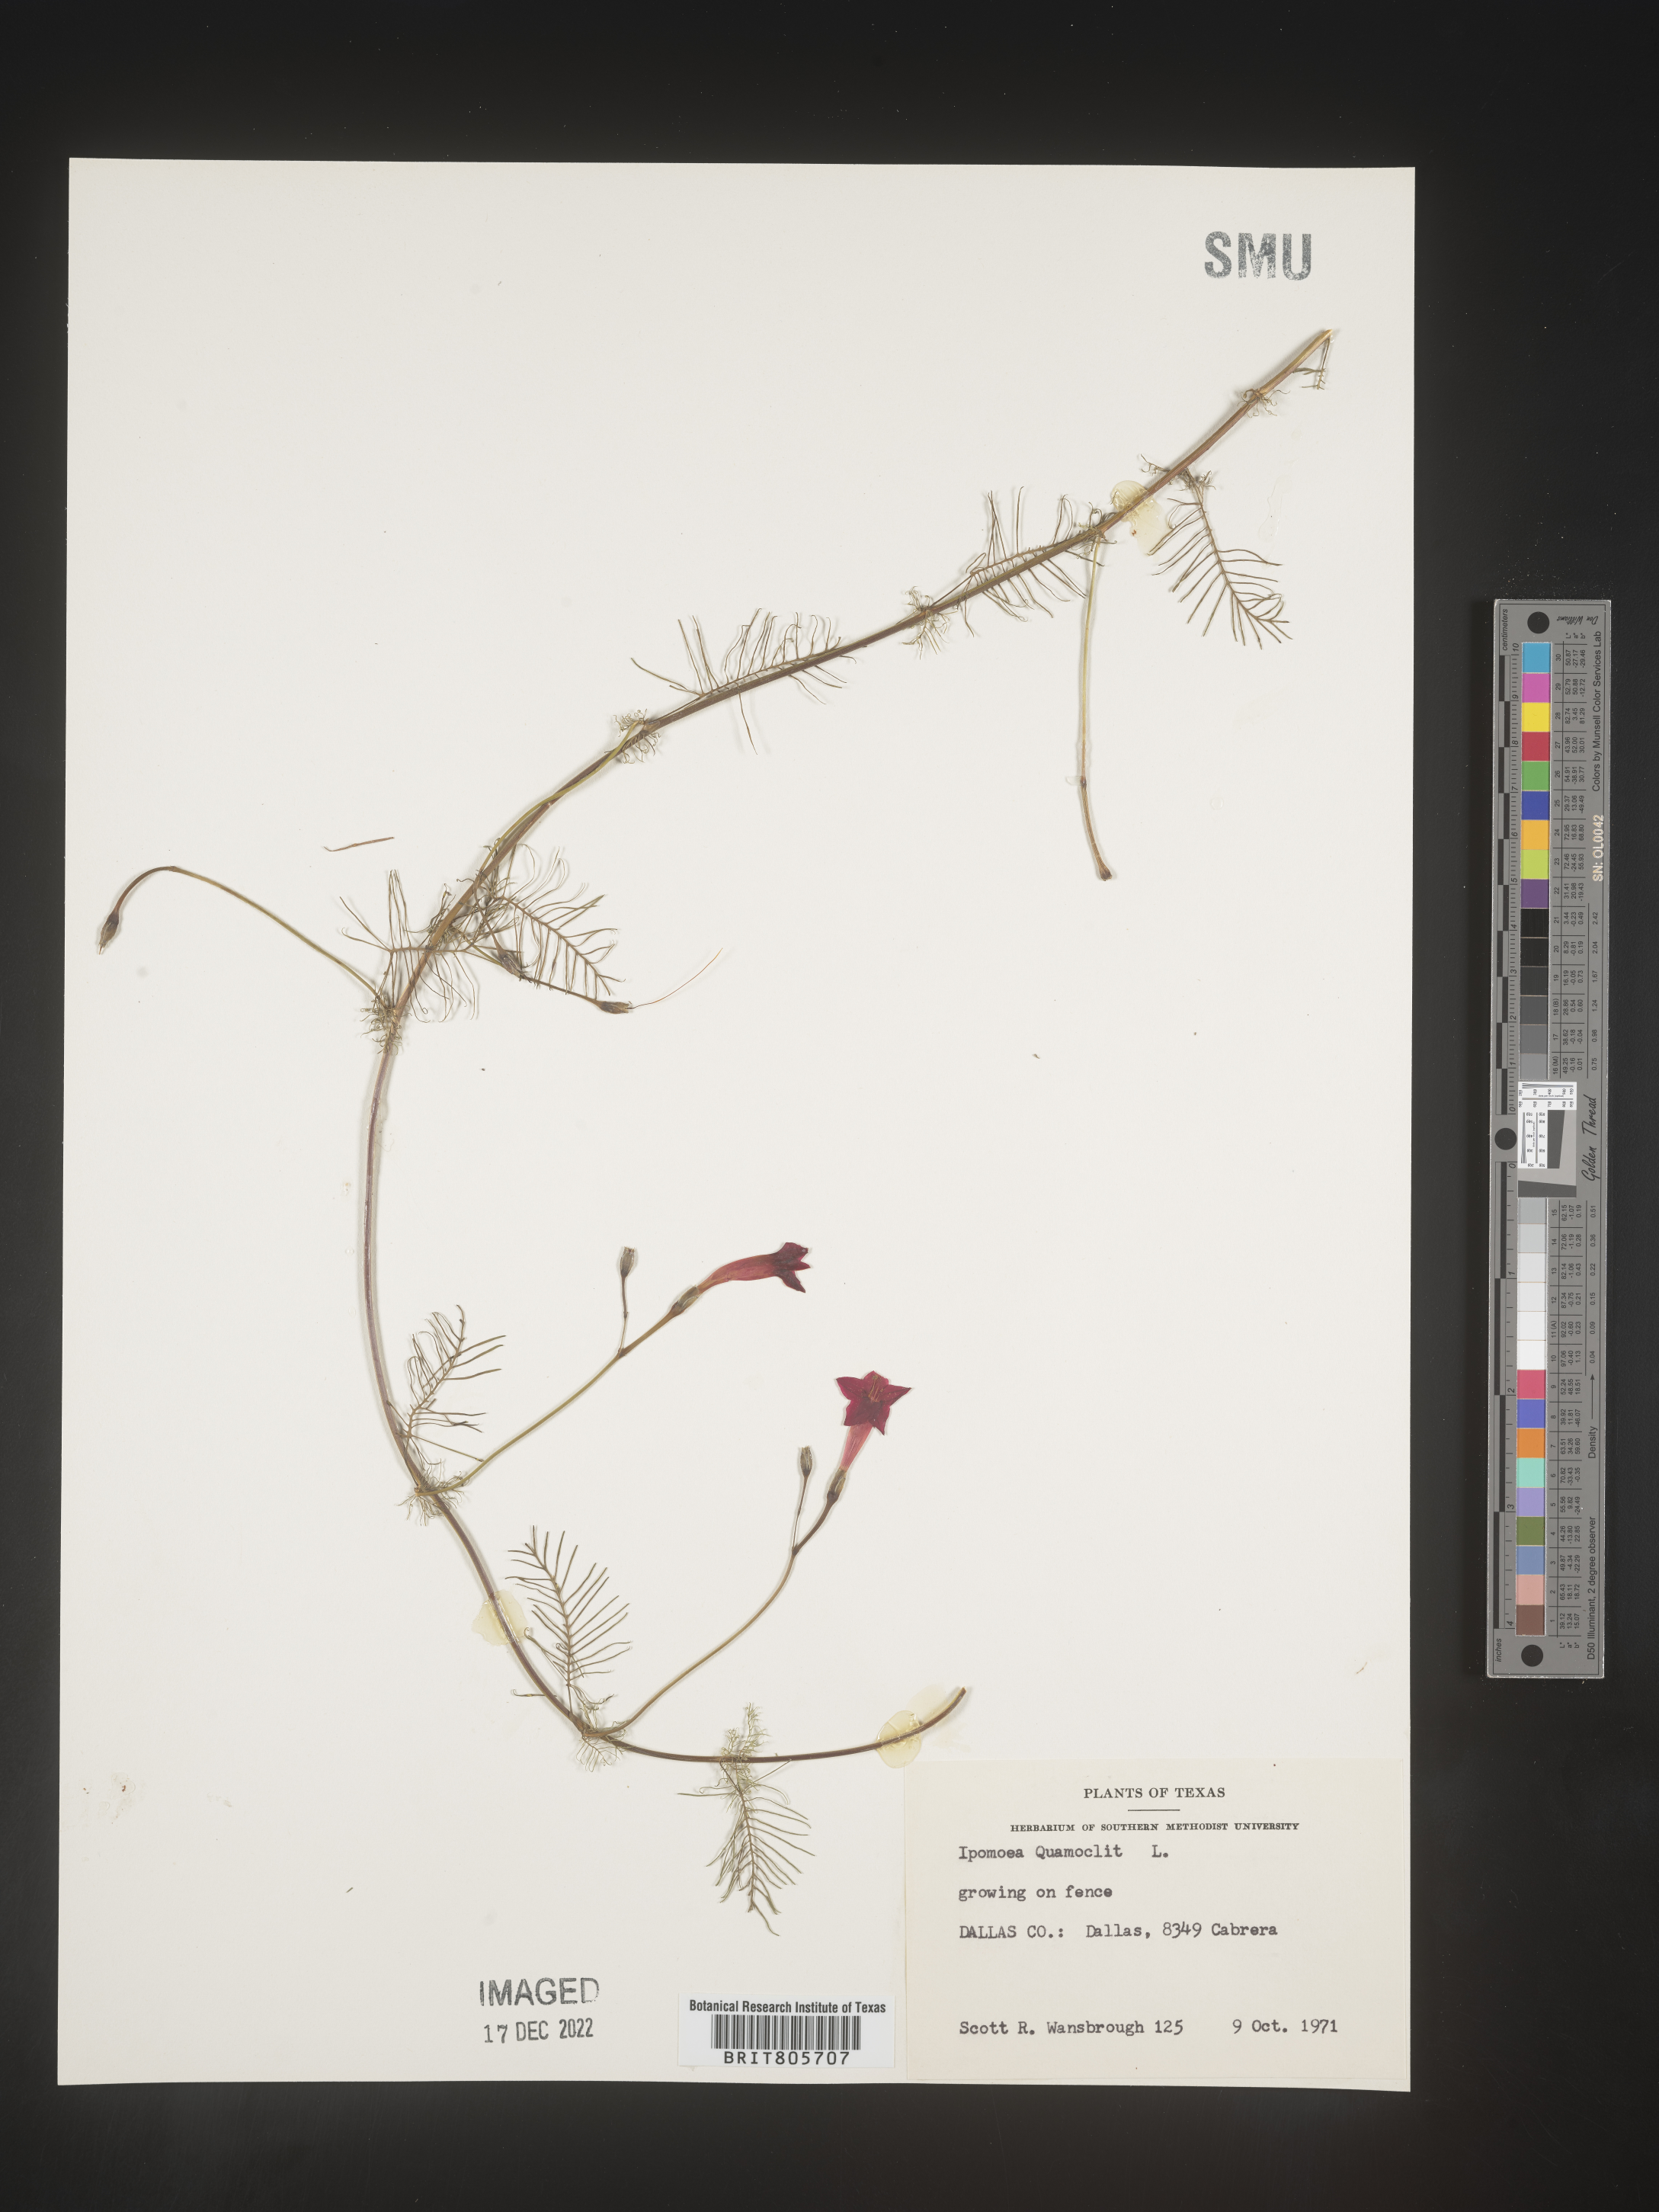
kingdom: Plantae
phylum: Tracheophyta
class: Magnoliopsida
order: Solanales
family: Convolvulaceae
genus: Ipomoea
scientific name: Ipomoea quamoclit
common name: Cypress vine
